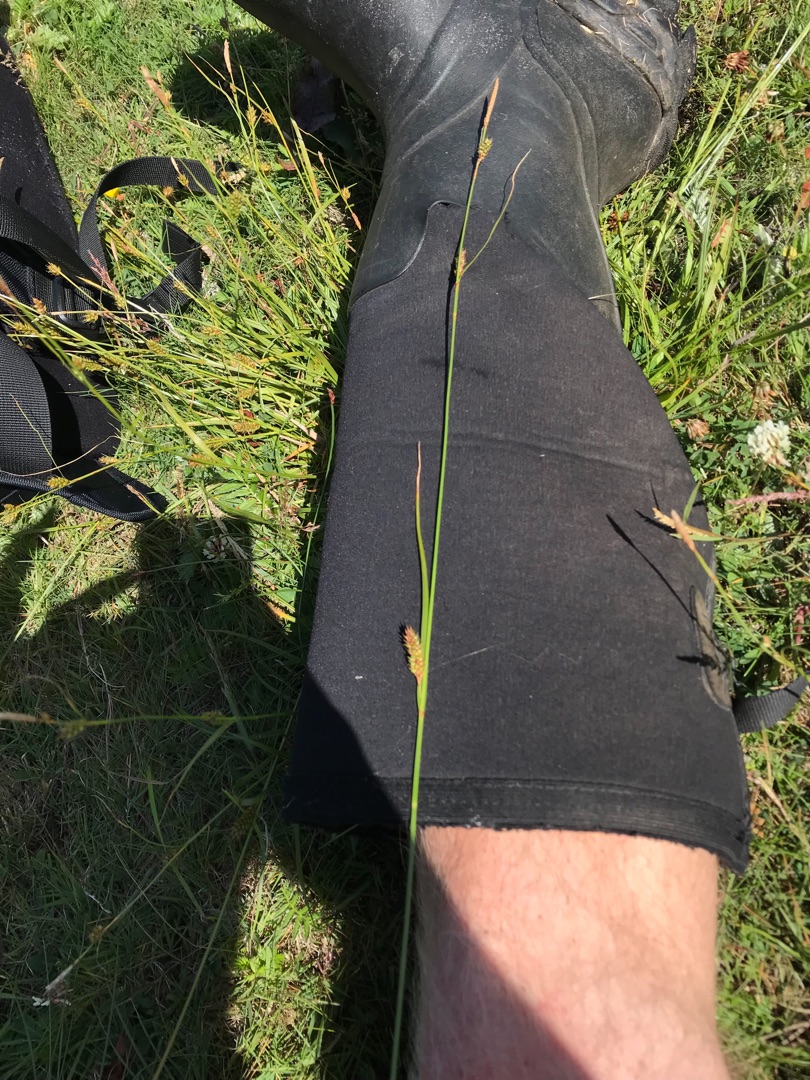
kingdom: Plantae
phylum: Tracheophyta
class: Liliopsida
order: Poales
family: Cyperaceae
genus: Carex
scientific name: Carex distans
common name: Fjernakset star
